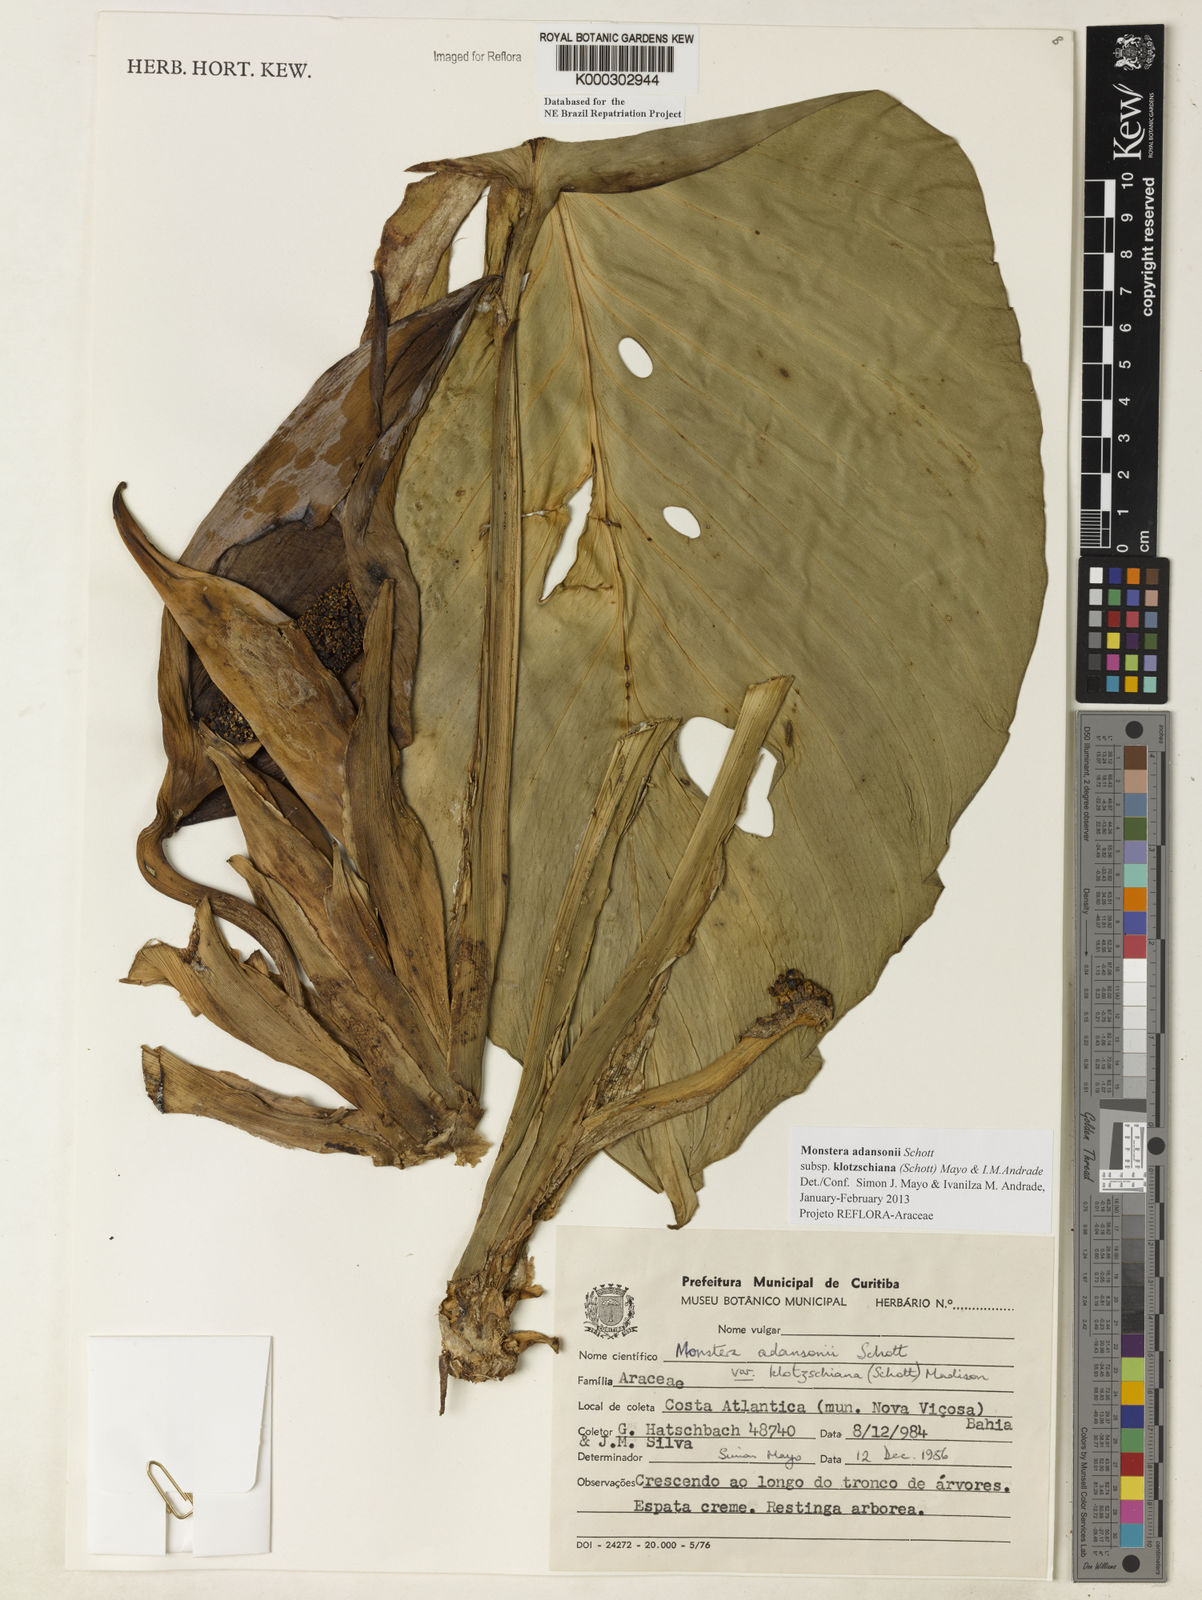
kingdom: Plantae
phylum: Tracheophyta
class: Liliopsida
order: Alismatales
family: Araceae
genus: Monstera
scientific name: Monstera adansonii
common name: Tarovine
